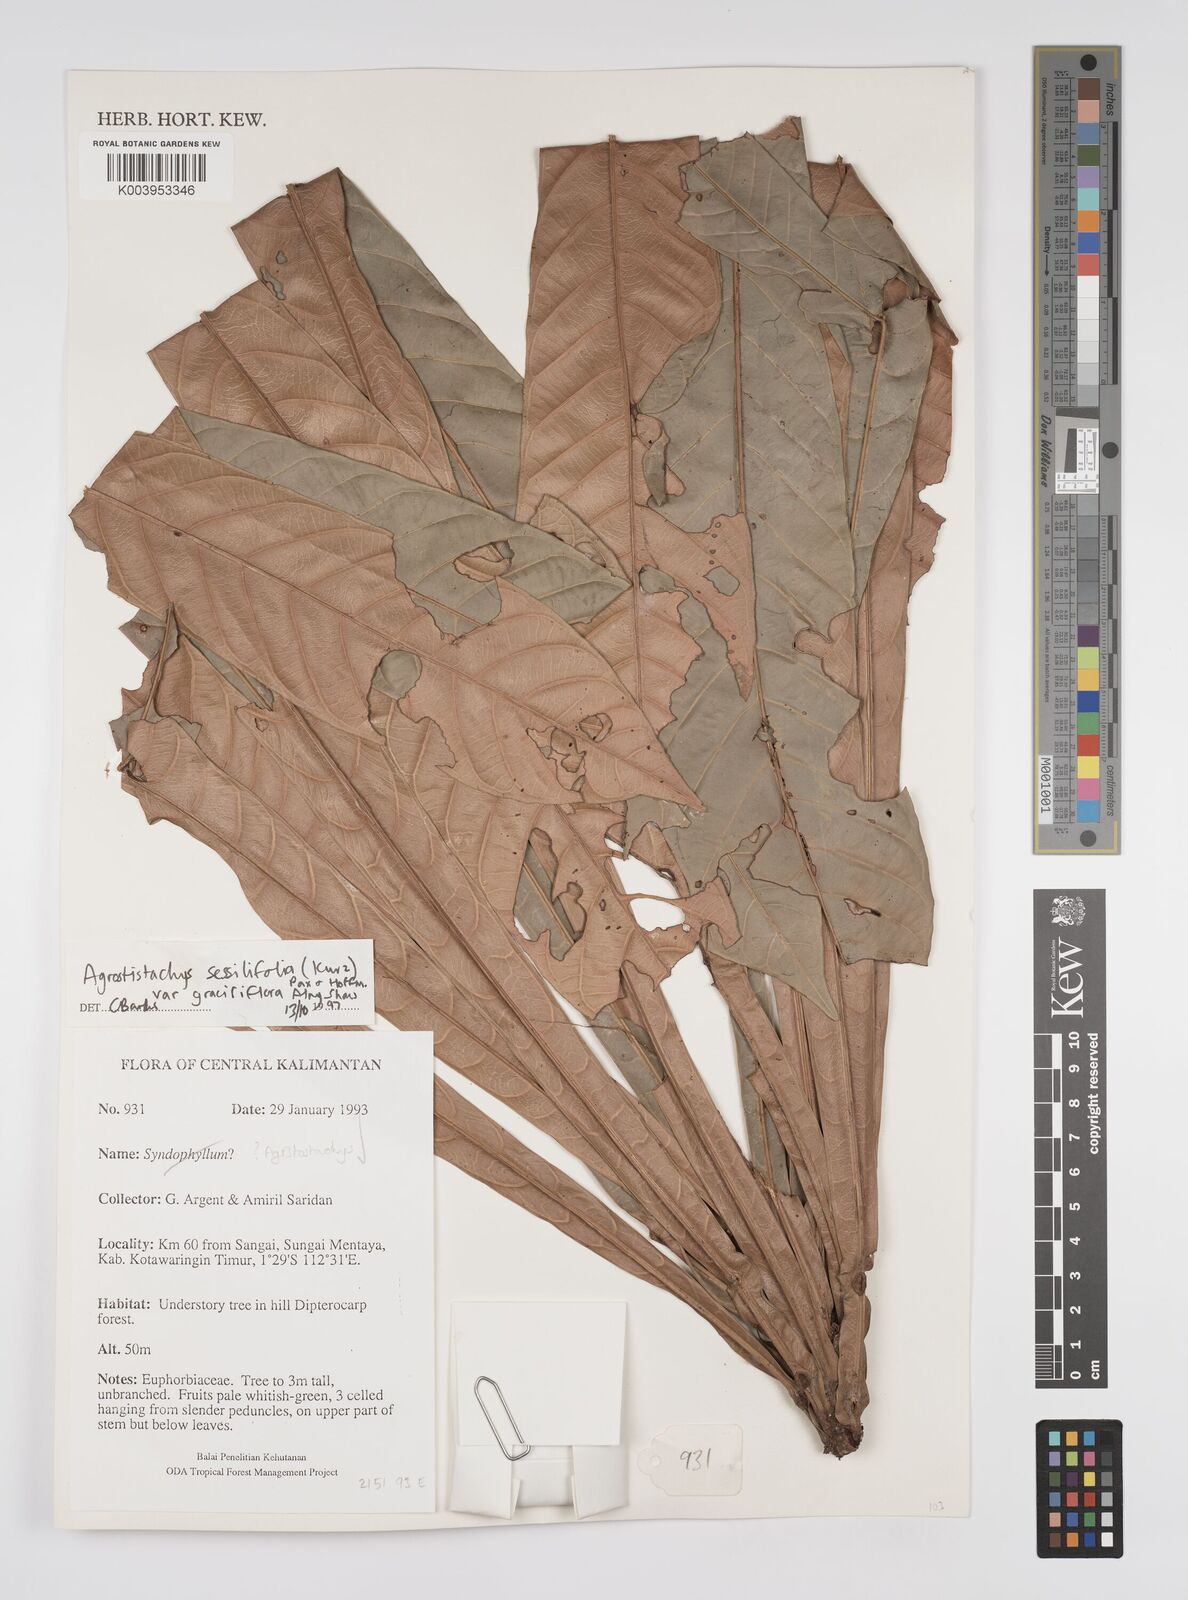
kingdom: Plantae
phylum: Tracheophyta
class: Magnoliopsida
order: Malpighiales
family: Euphorbiaceae
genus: Agrostistachys
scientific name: Agrostistachys sessilifolia
